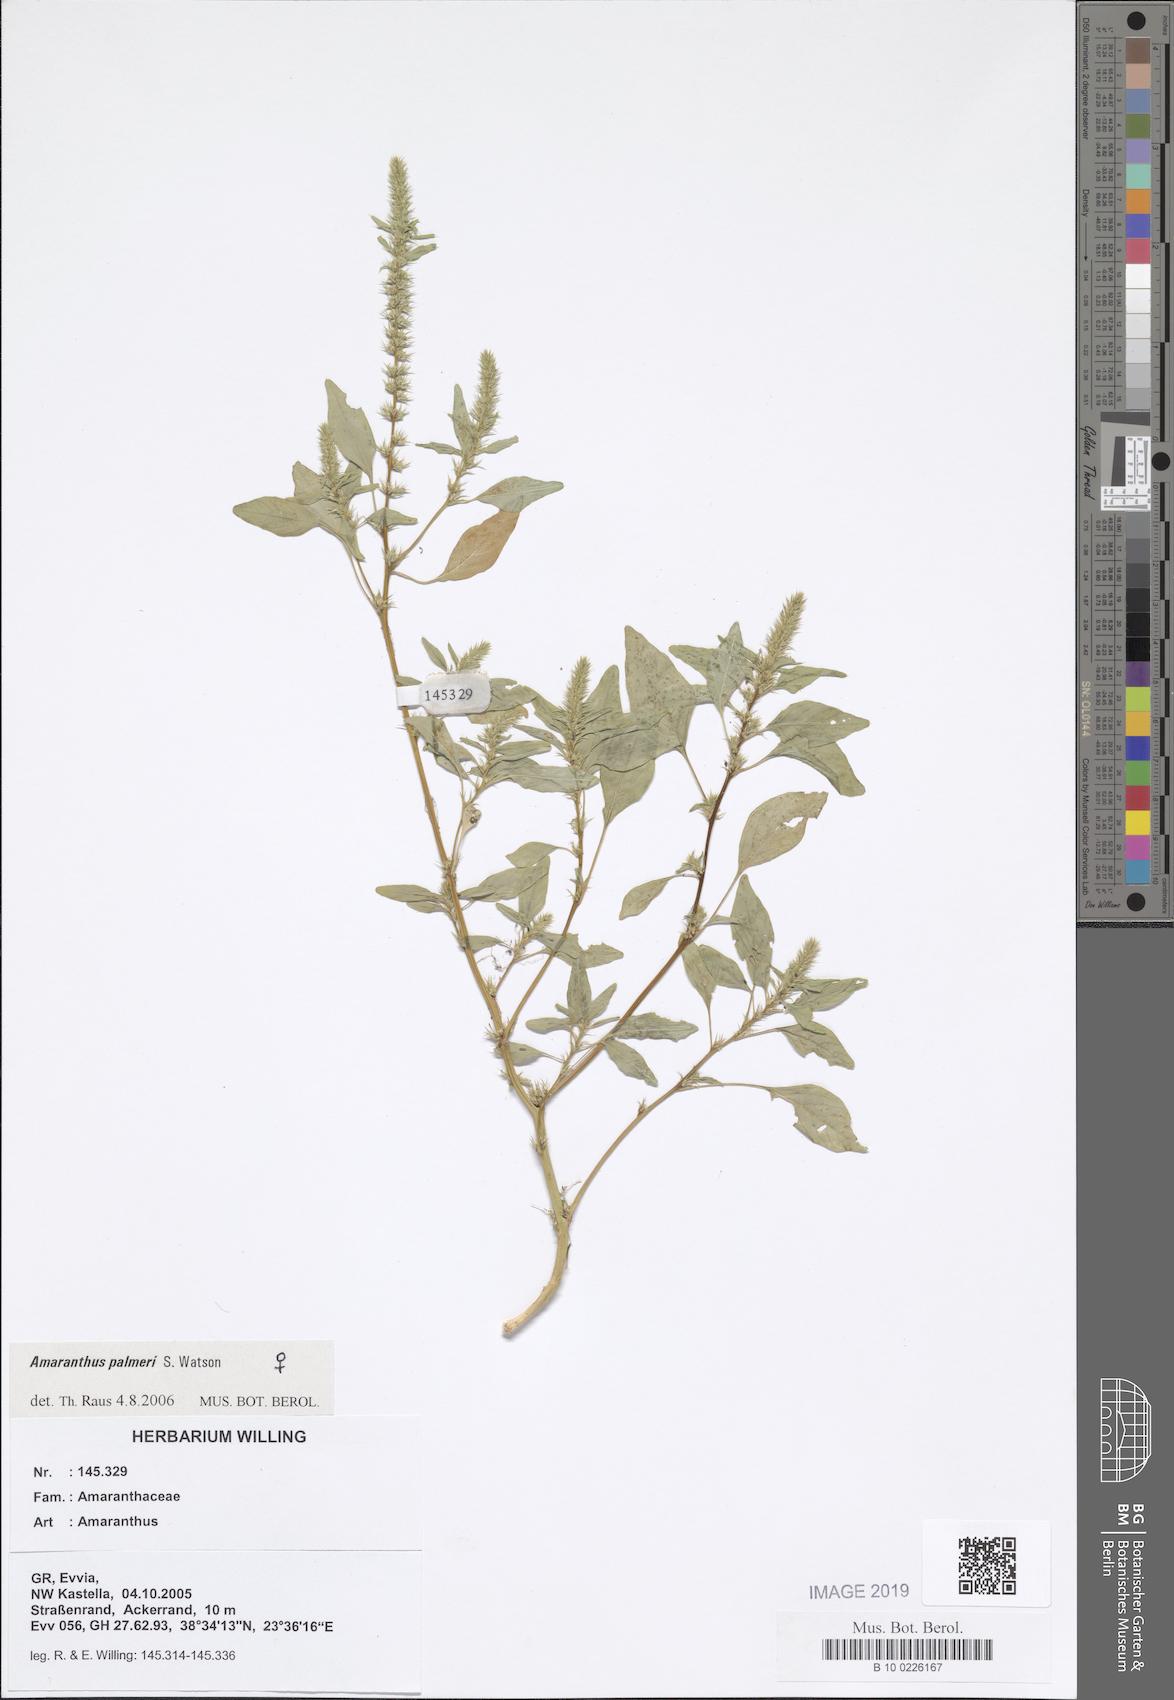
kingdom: Plantae
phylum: Tracheophyta
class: Magnoliopsida
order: Saxifragales
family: Saxifragaceae
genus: Saxifraga
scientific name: Saxifraga juniperifolia
